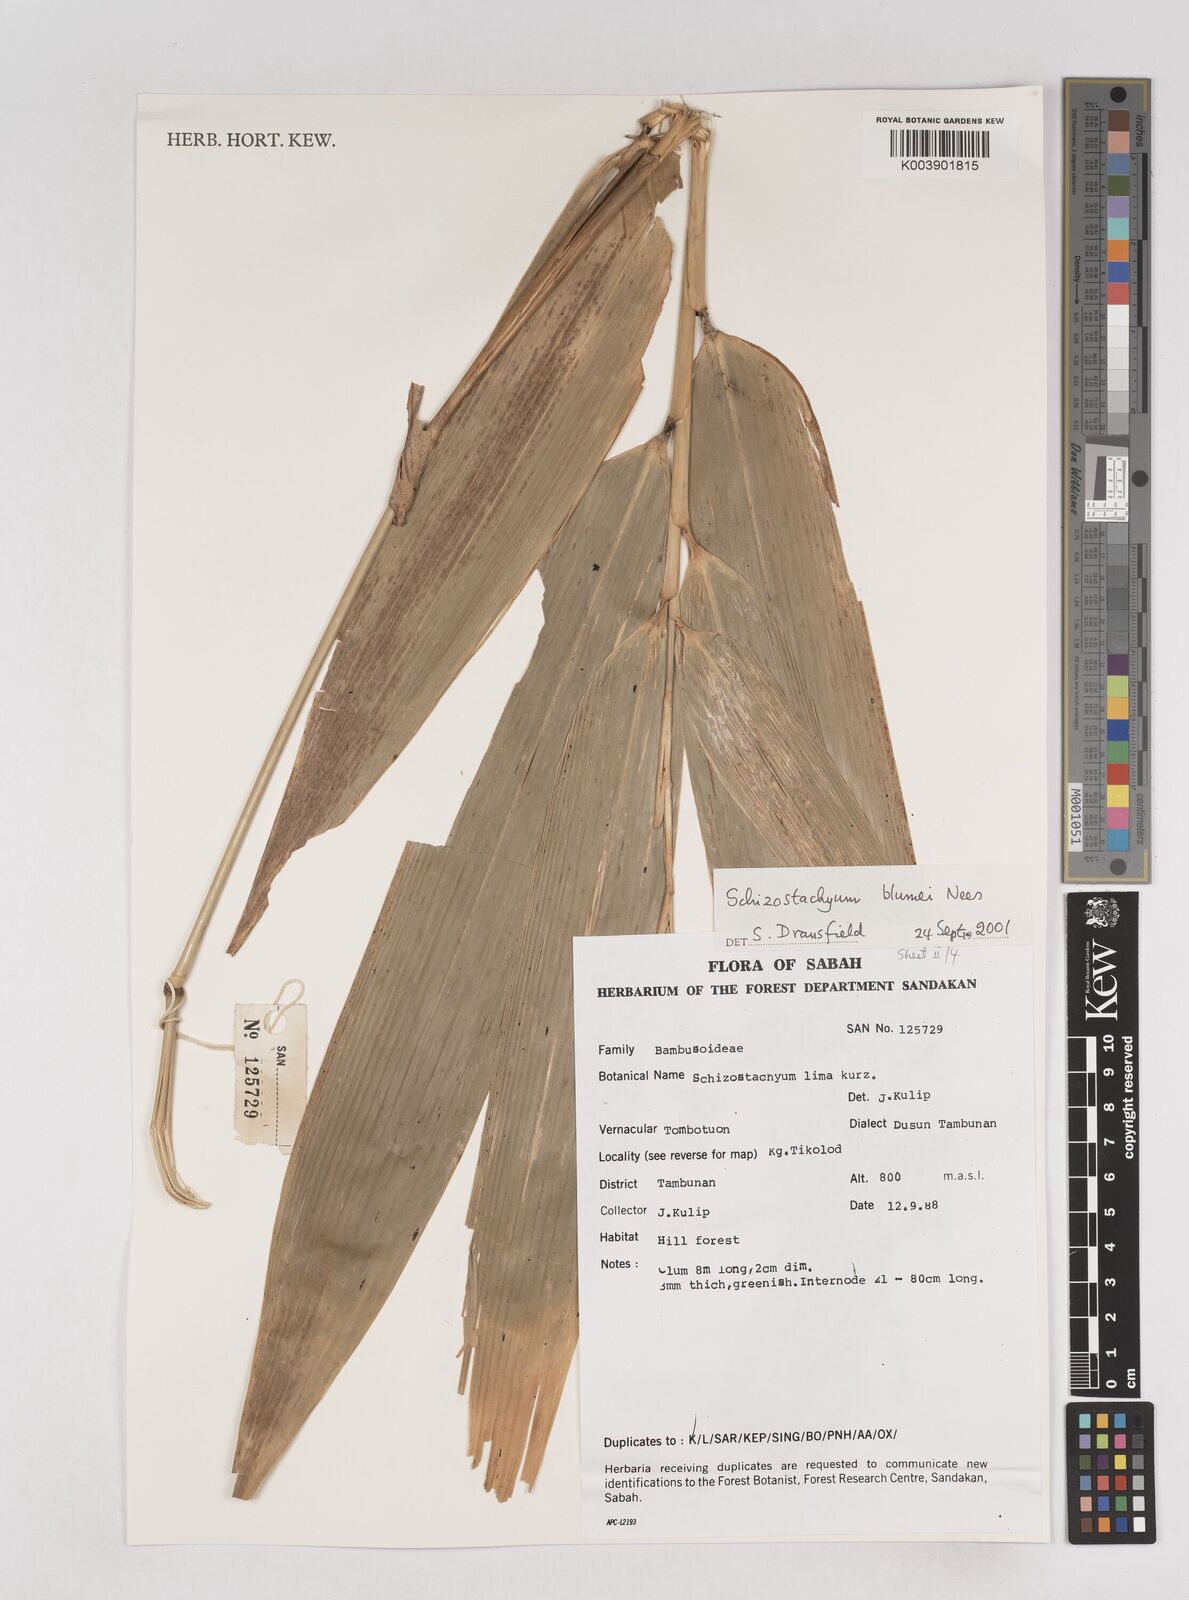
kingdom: Plantae
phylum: Tracheophyta
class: Liliopsida
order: Poales
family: Poaceae
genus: Schizostachyum
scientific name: Schizostachyum blumei
